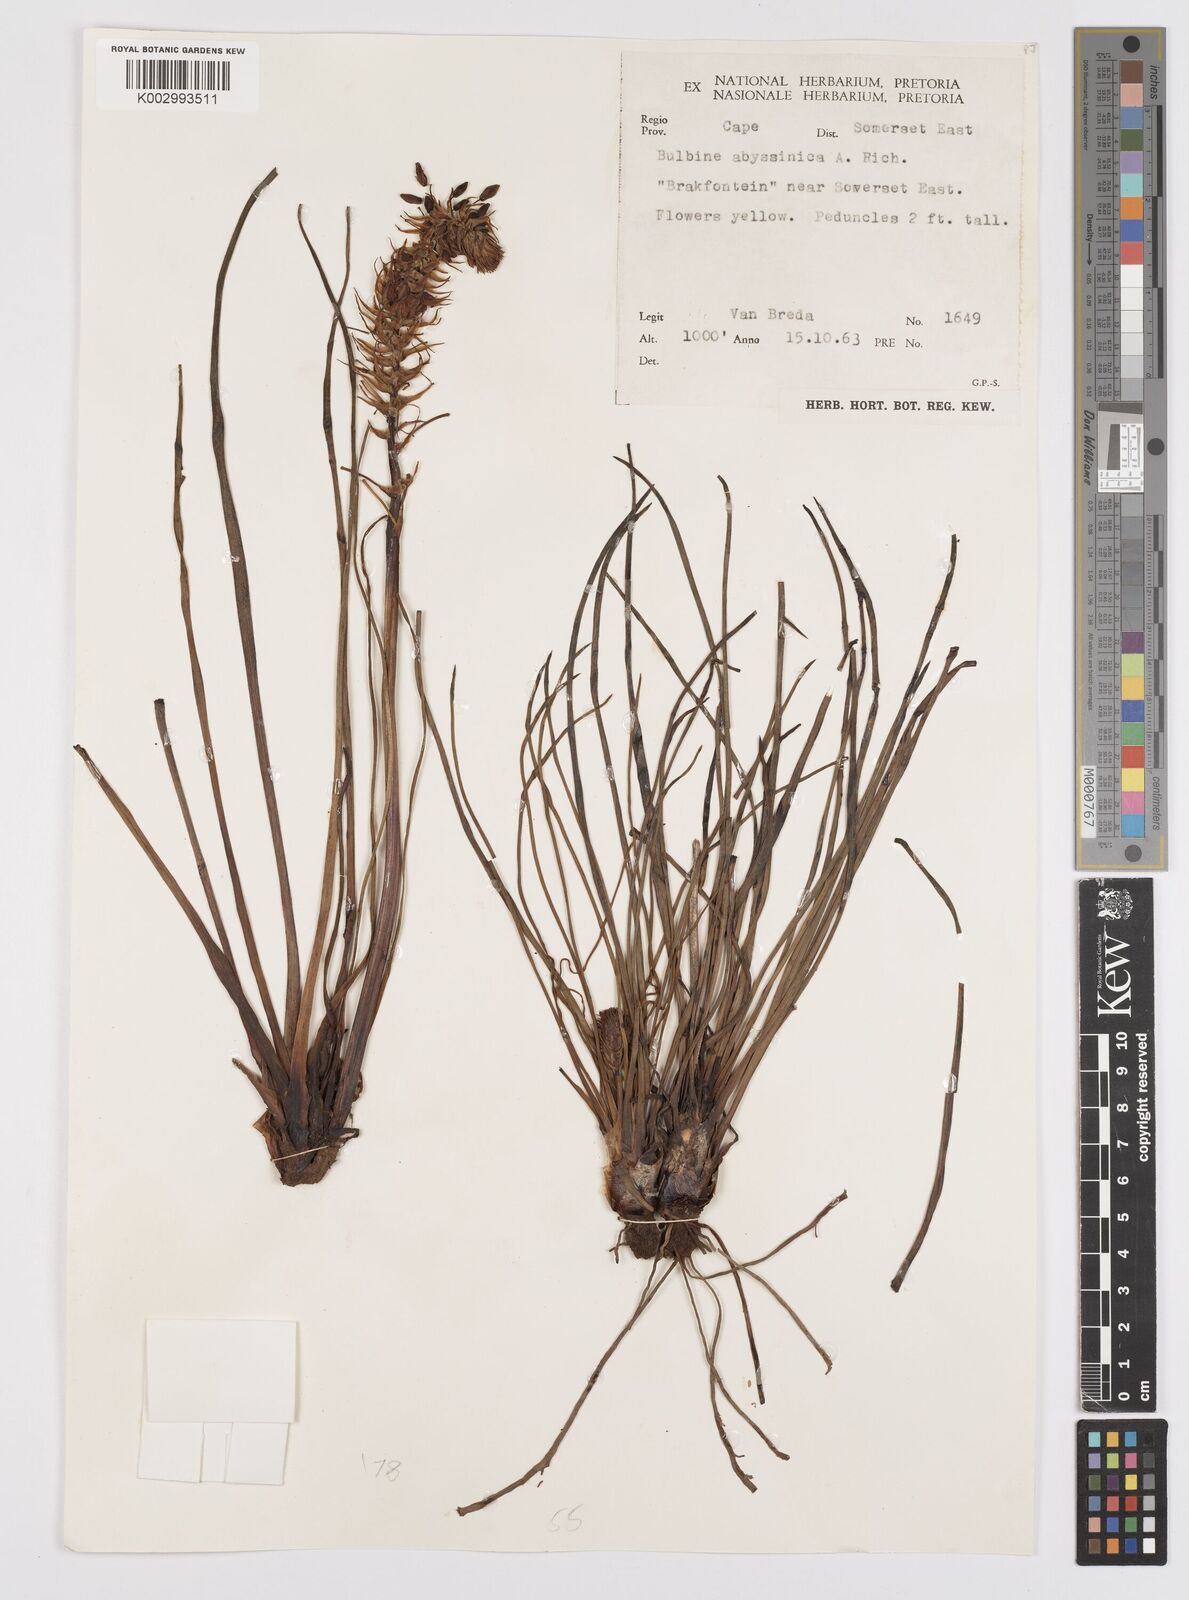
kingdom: Plantae
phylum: Tracheophyta
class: Liliopsida
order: Asparagales
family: Asphodelaceae
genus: Bulbine
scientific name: Bulbine abyssinica
